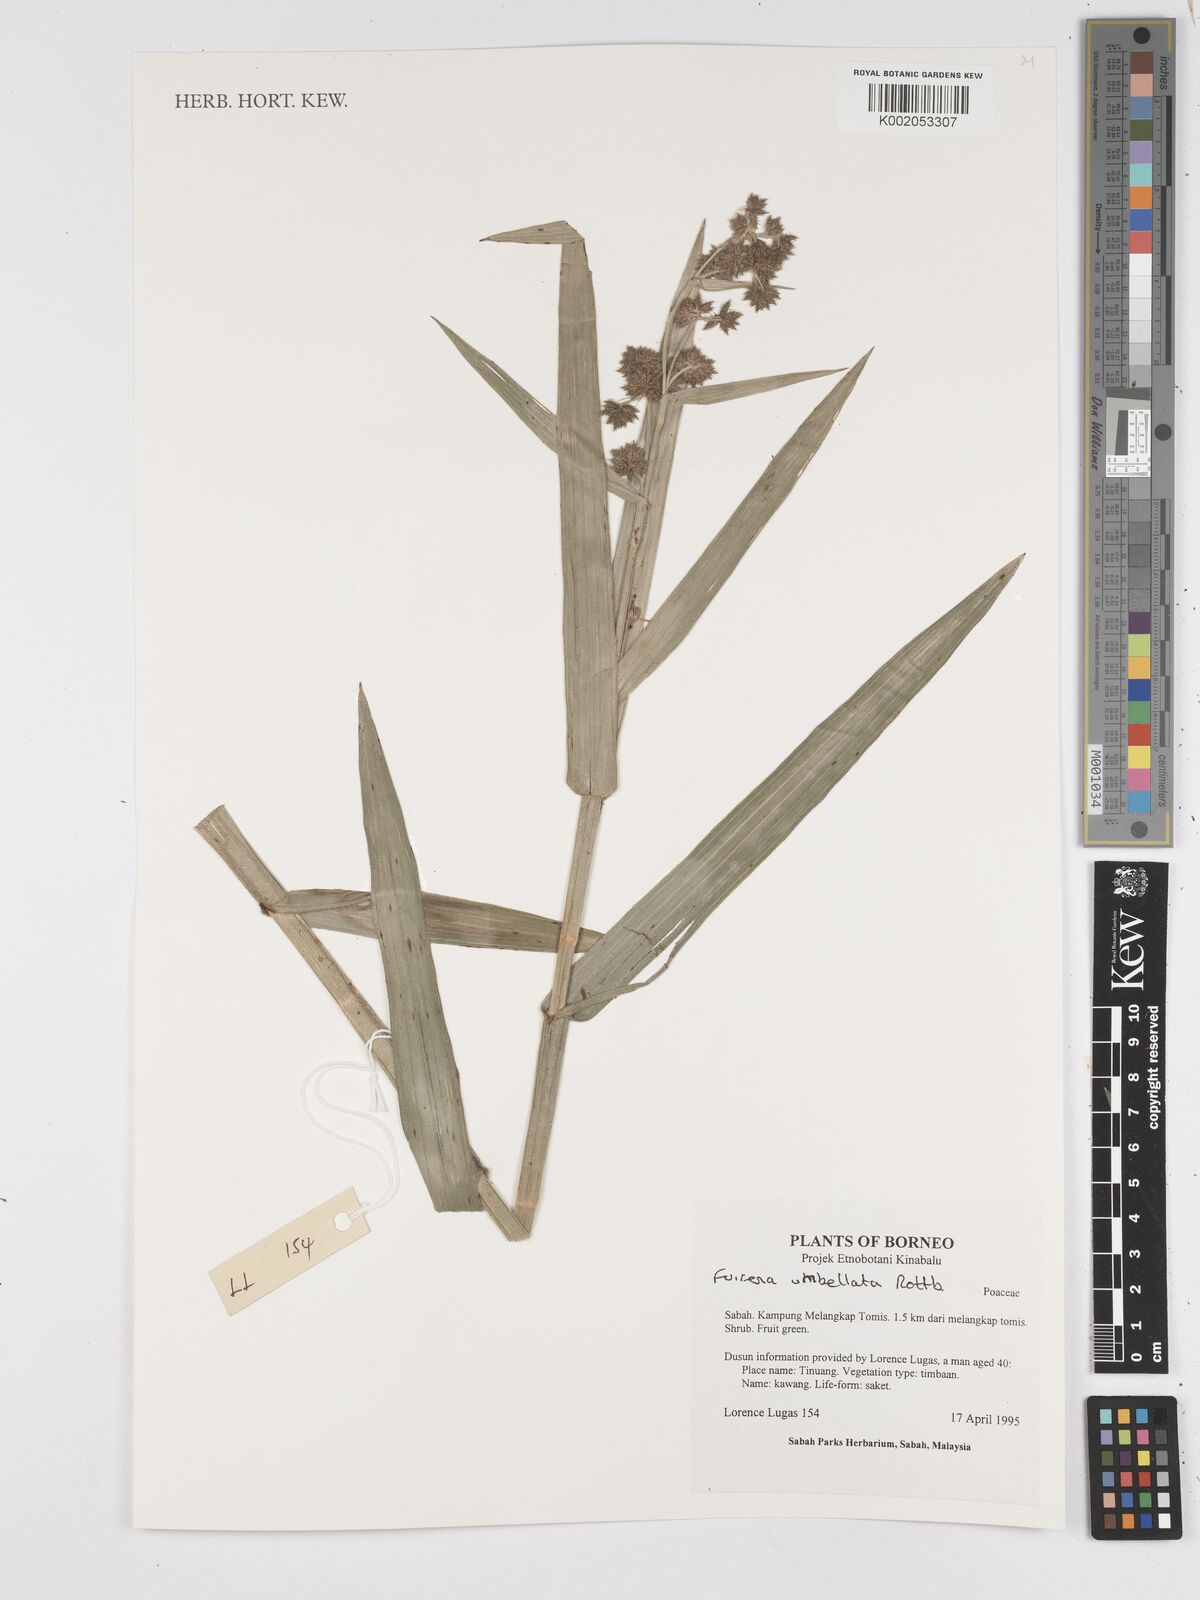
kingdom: Plantae
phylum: Tracheophyta
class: Liliopsida
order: Poales
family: Cyperaceae
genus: Fuirena
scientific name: Fuirena umbellata
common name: Yefen
